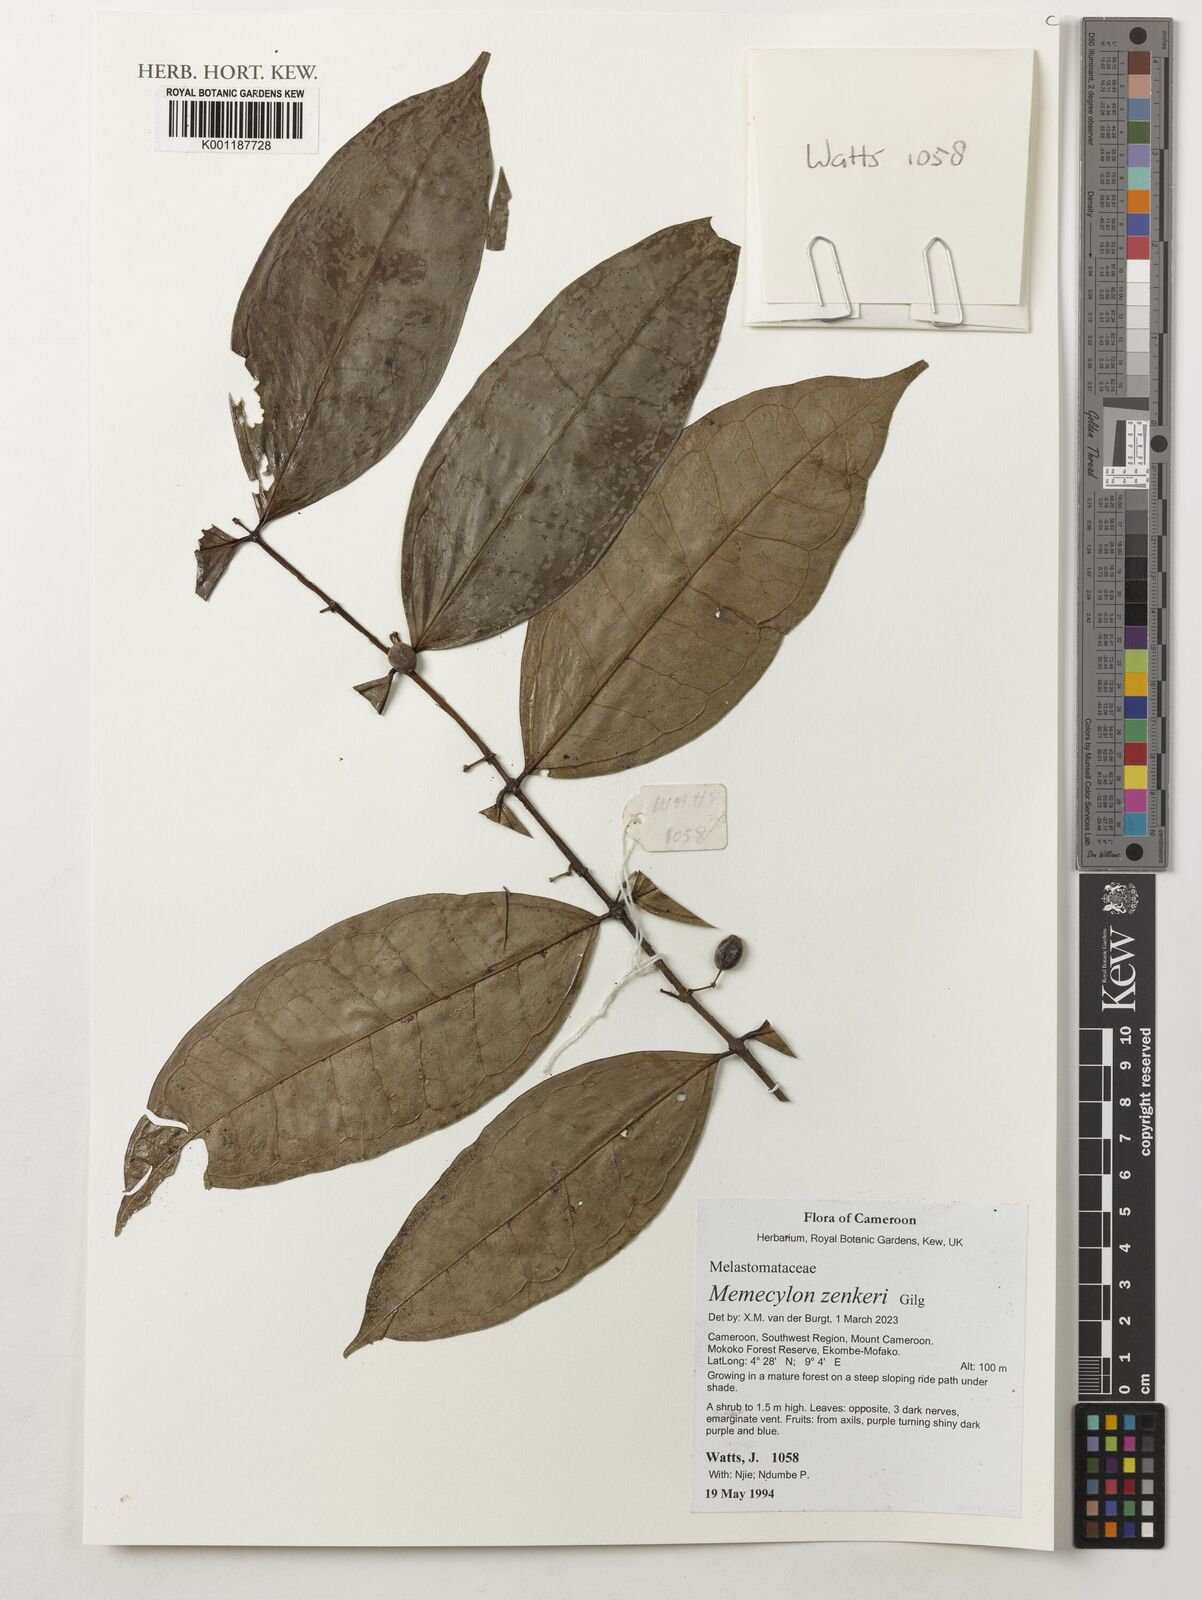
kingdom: Plantae
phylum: Tracheophyta
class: Magnoliopsida
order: Myrtales
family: Melastomataceae
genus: Memecylon
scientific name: Memecylon zenkeri
